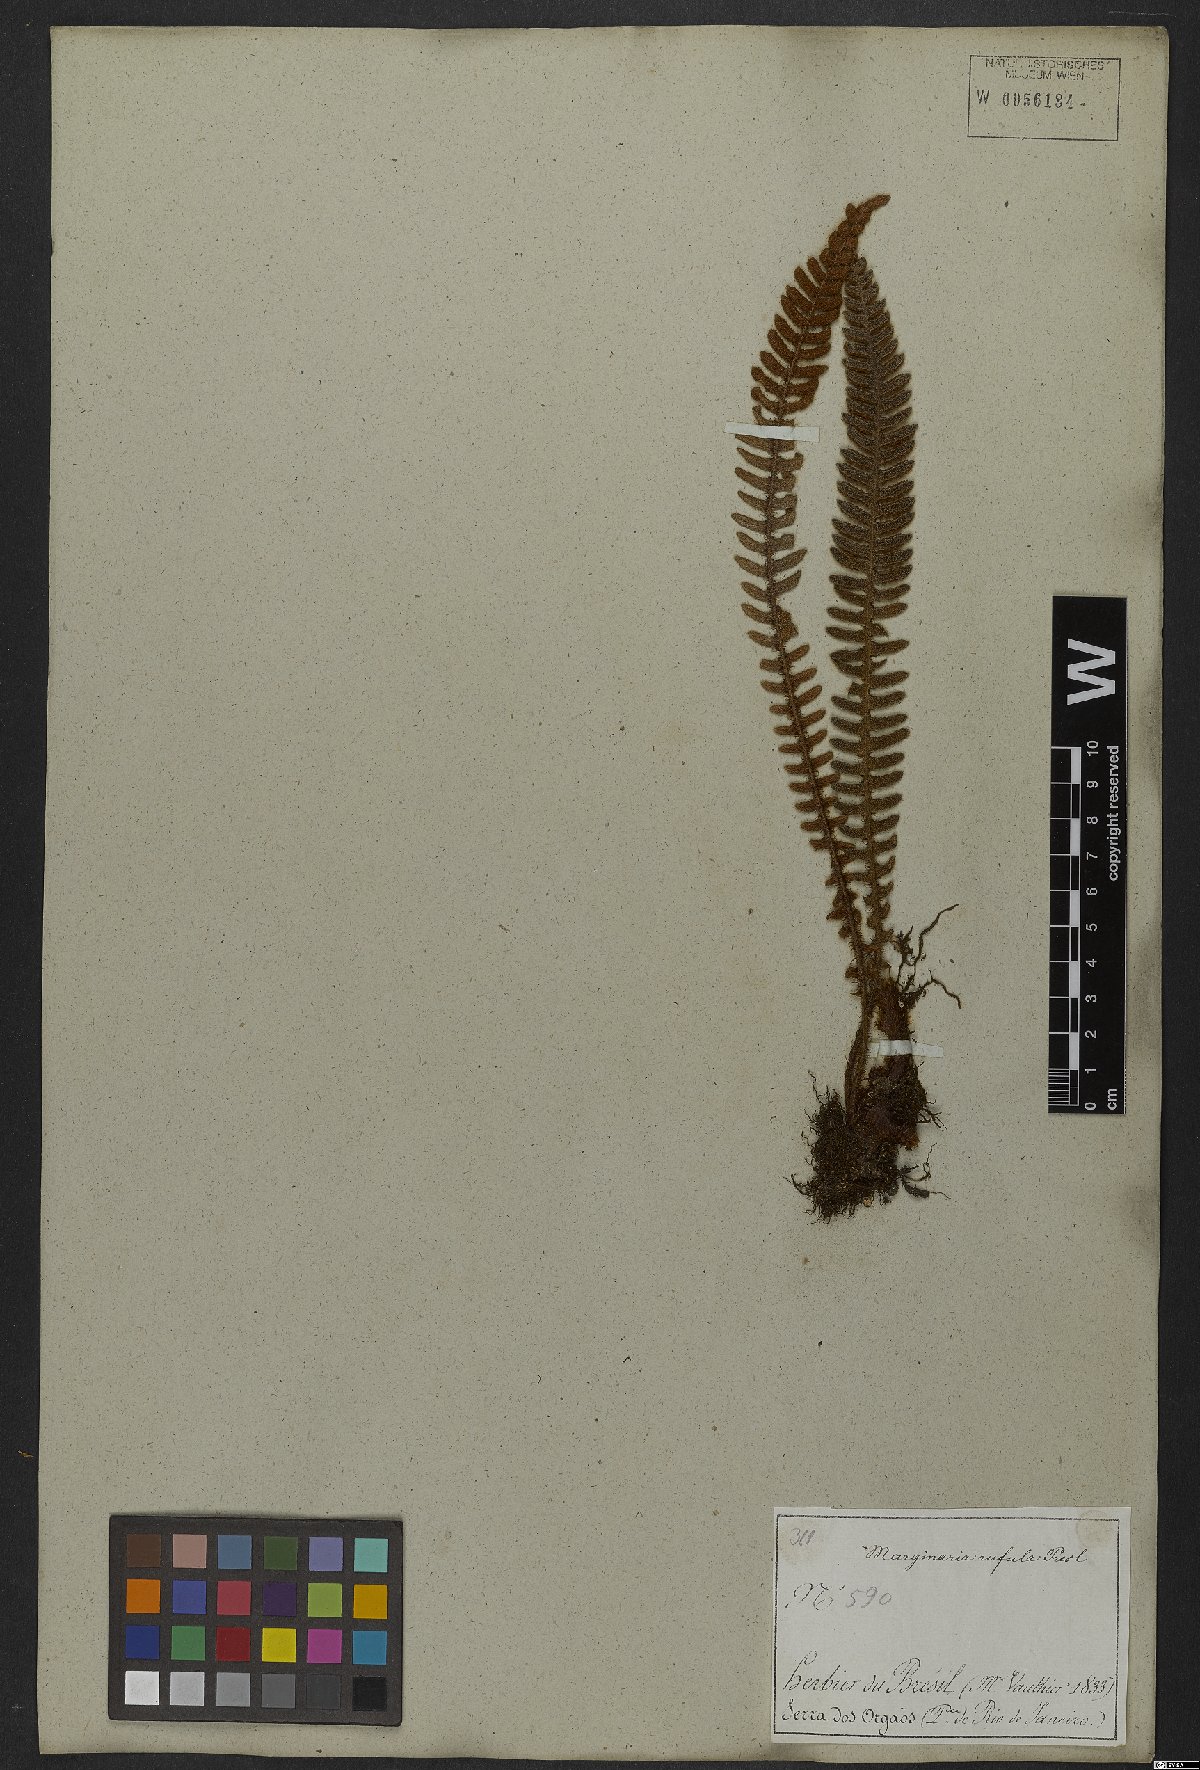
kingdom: Plantae
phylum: Tracheophyta
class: Polypodiopsida
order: Polypodiales
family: Polypodiaceae
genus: Pleopeltis
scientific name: Pleopeltis lepidopteris
